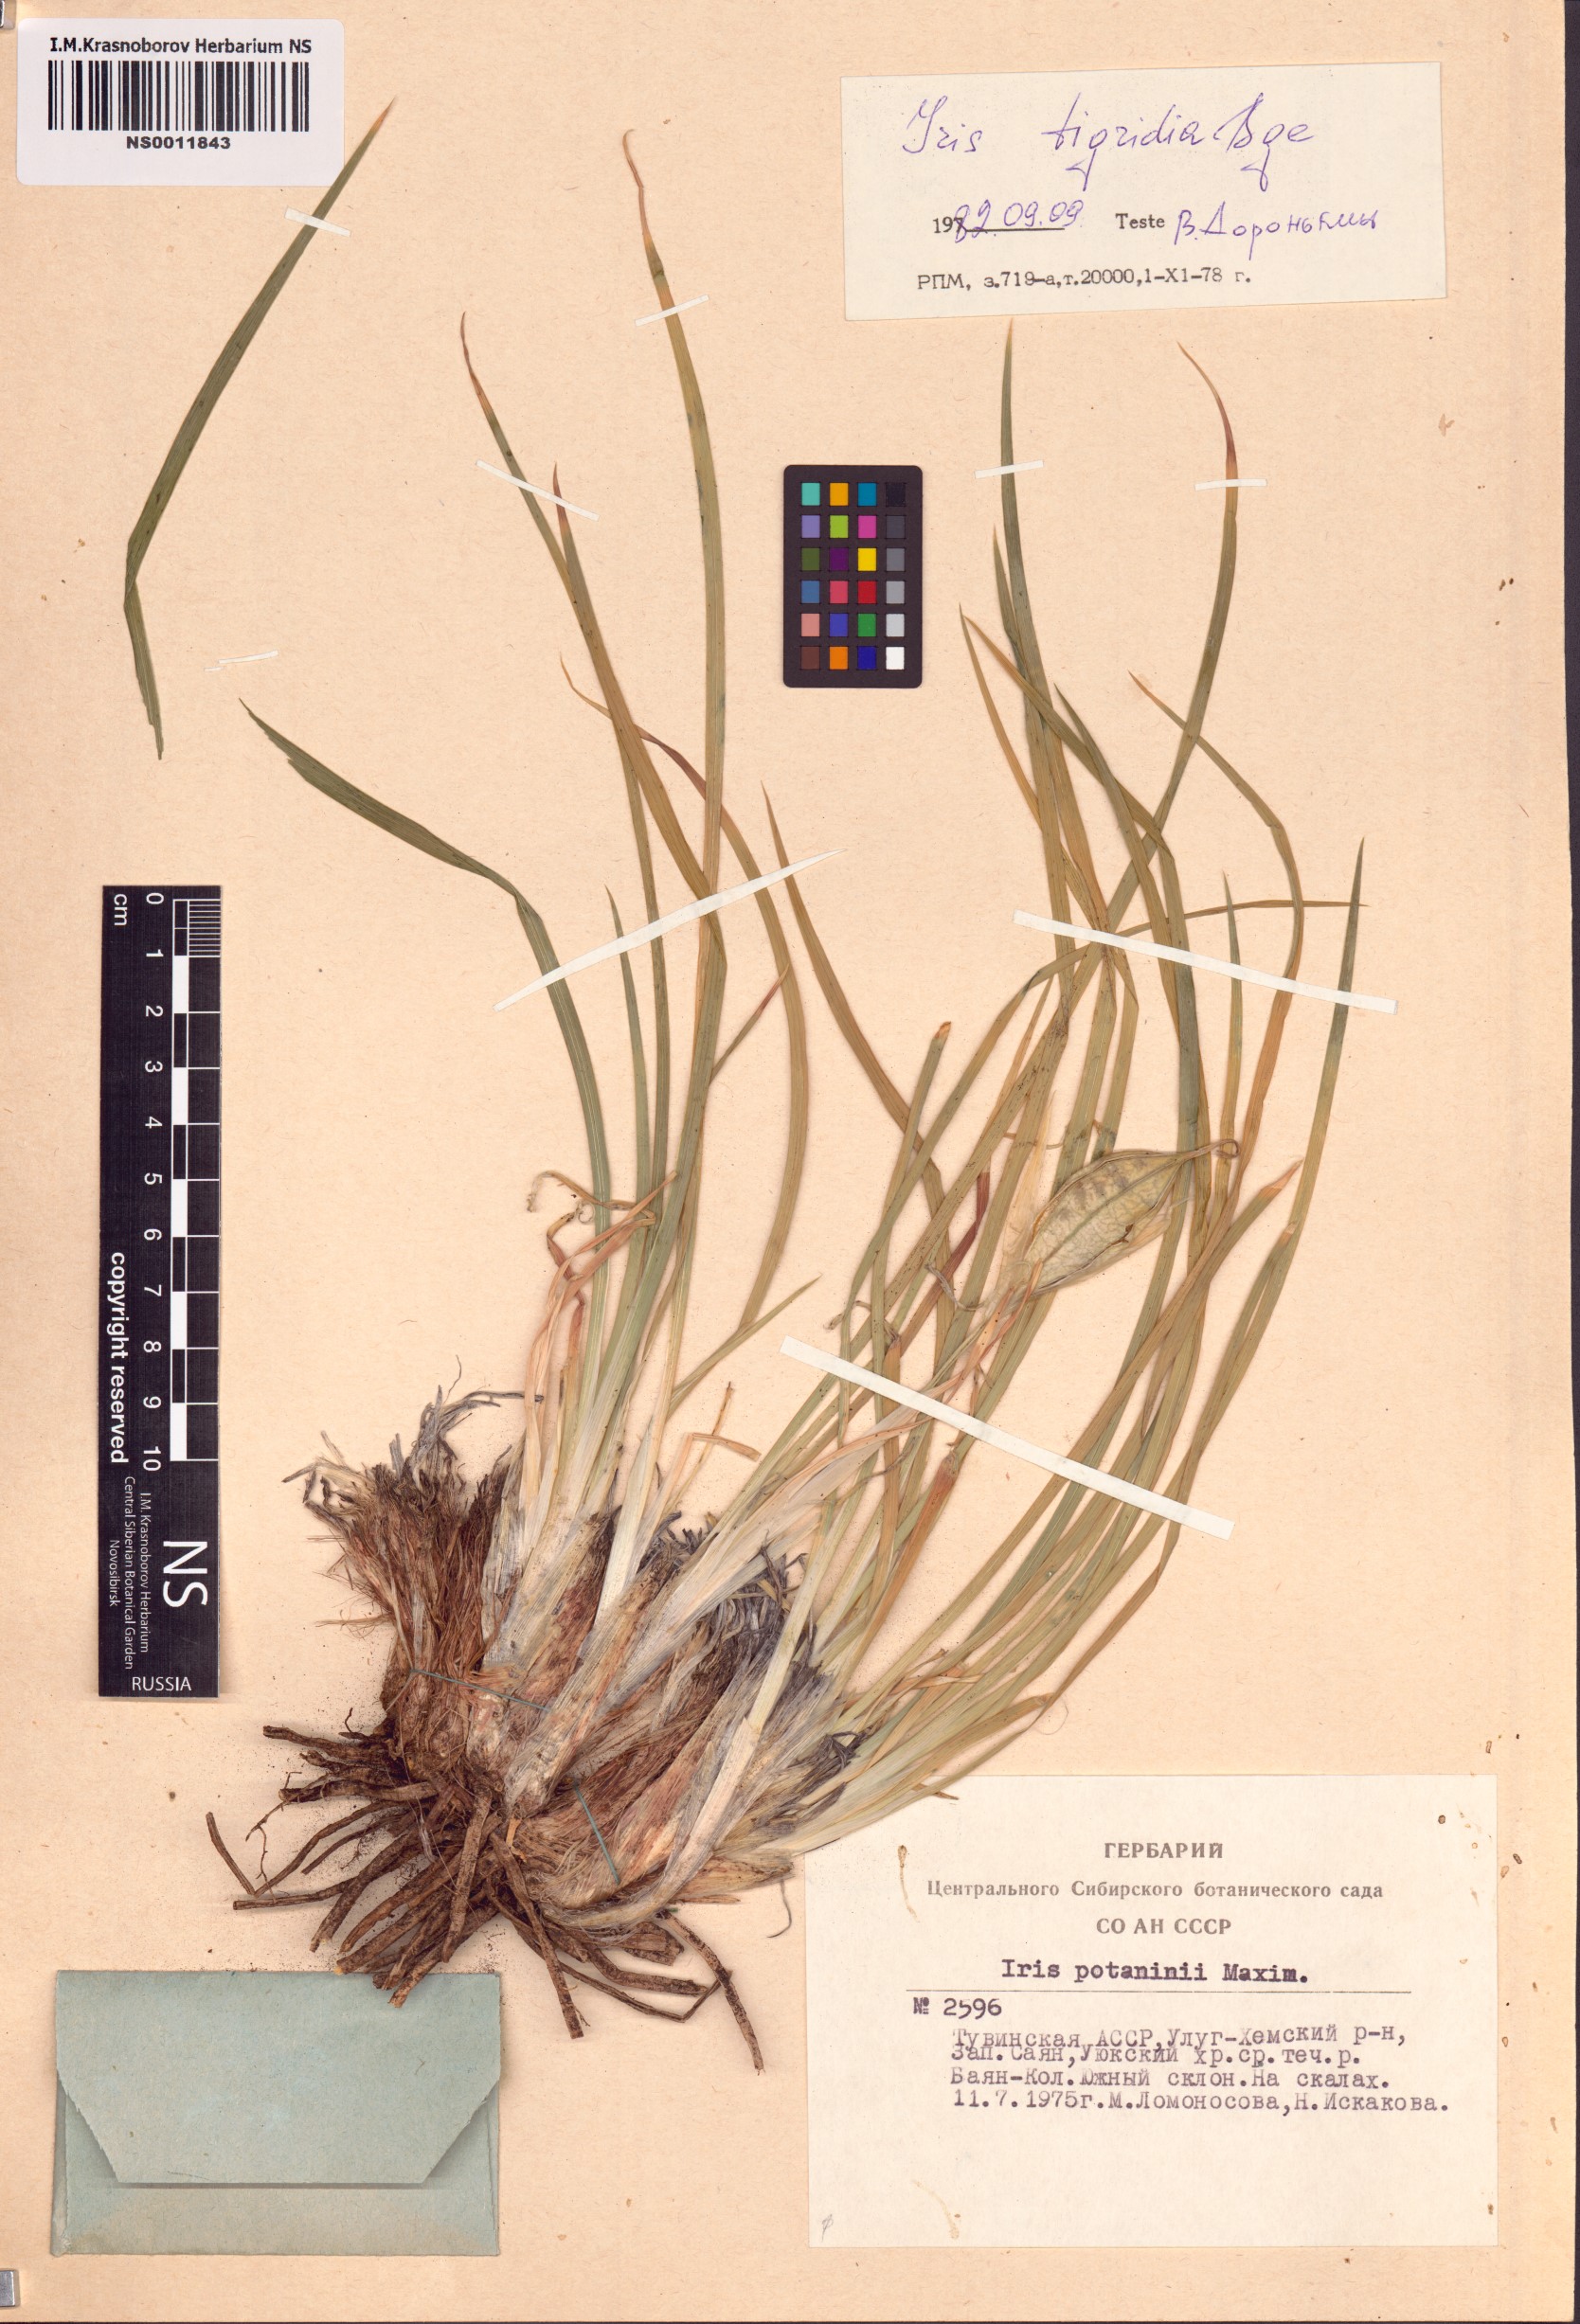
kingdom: Plantae
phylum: Tracheophyta
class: Liliopsida
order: Asparagales
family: Iridaceae
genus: Iris
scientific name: Iris tigridia
